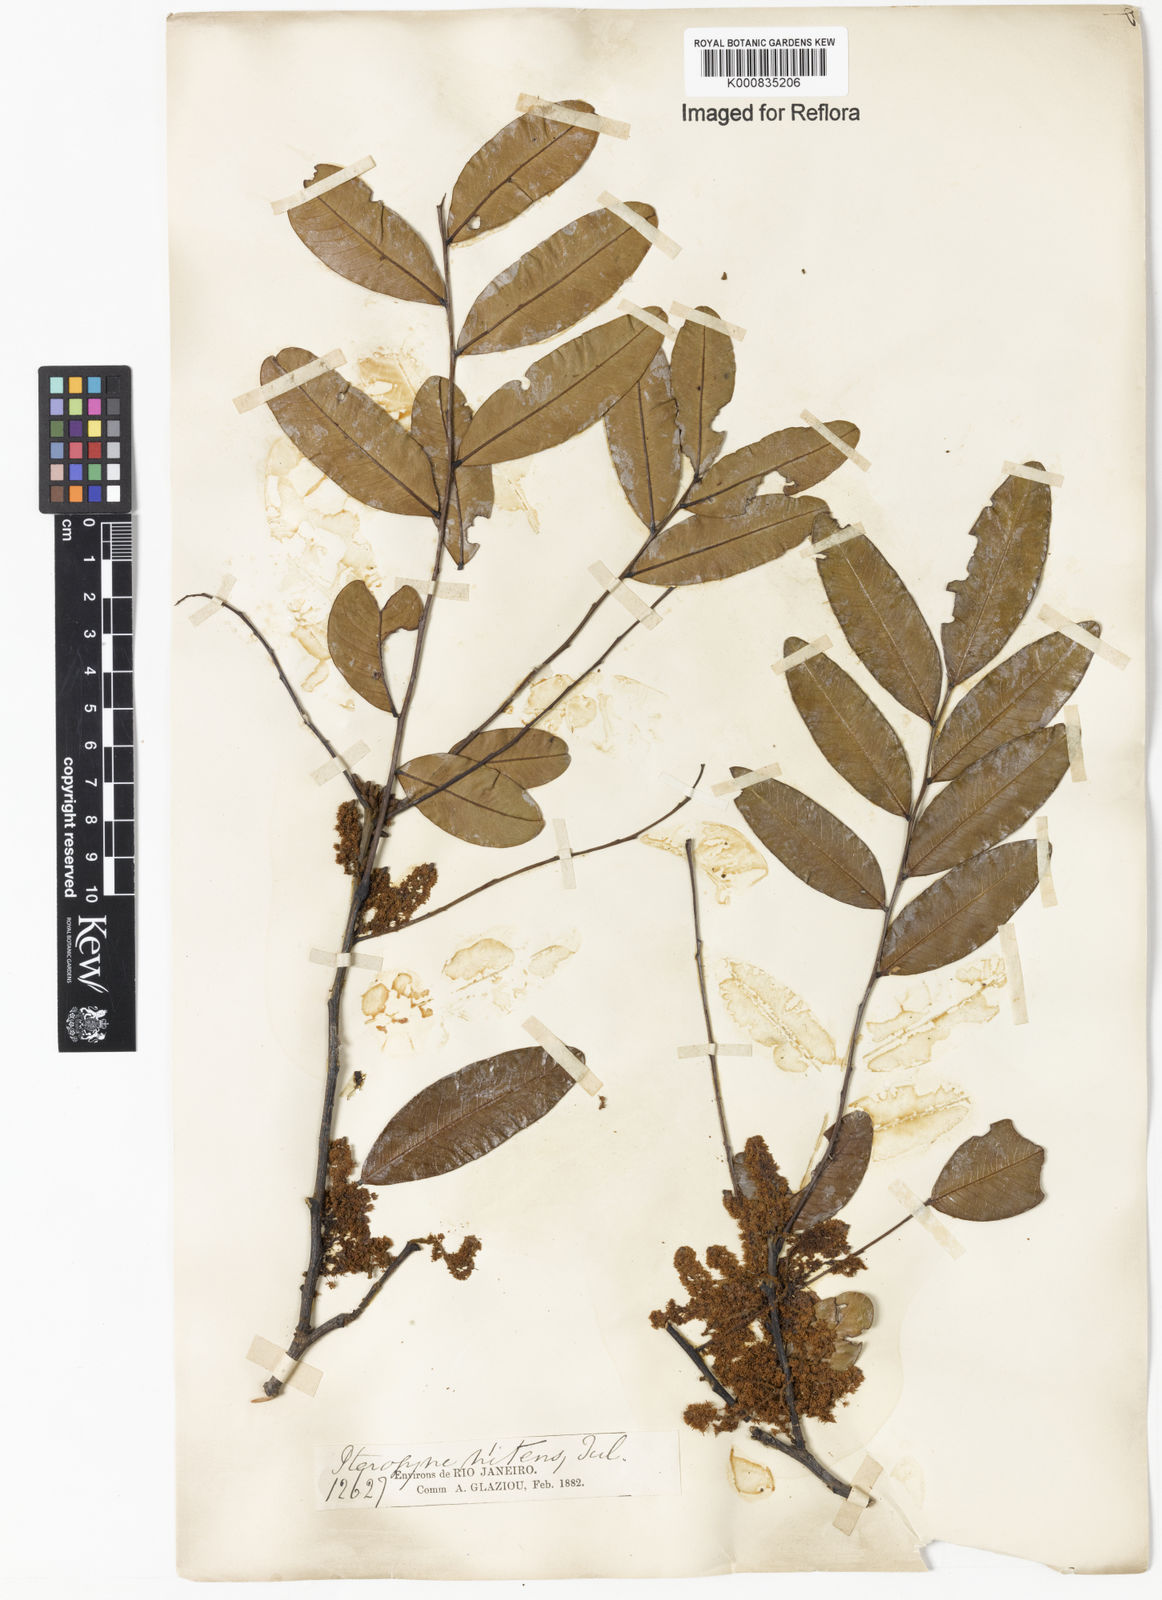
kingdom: Plantae
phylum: Tracheophyta
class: Magnoliopsida
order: Fabales
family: Fabaceae
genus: Pterogyne
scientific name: Pterogyne nitens
